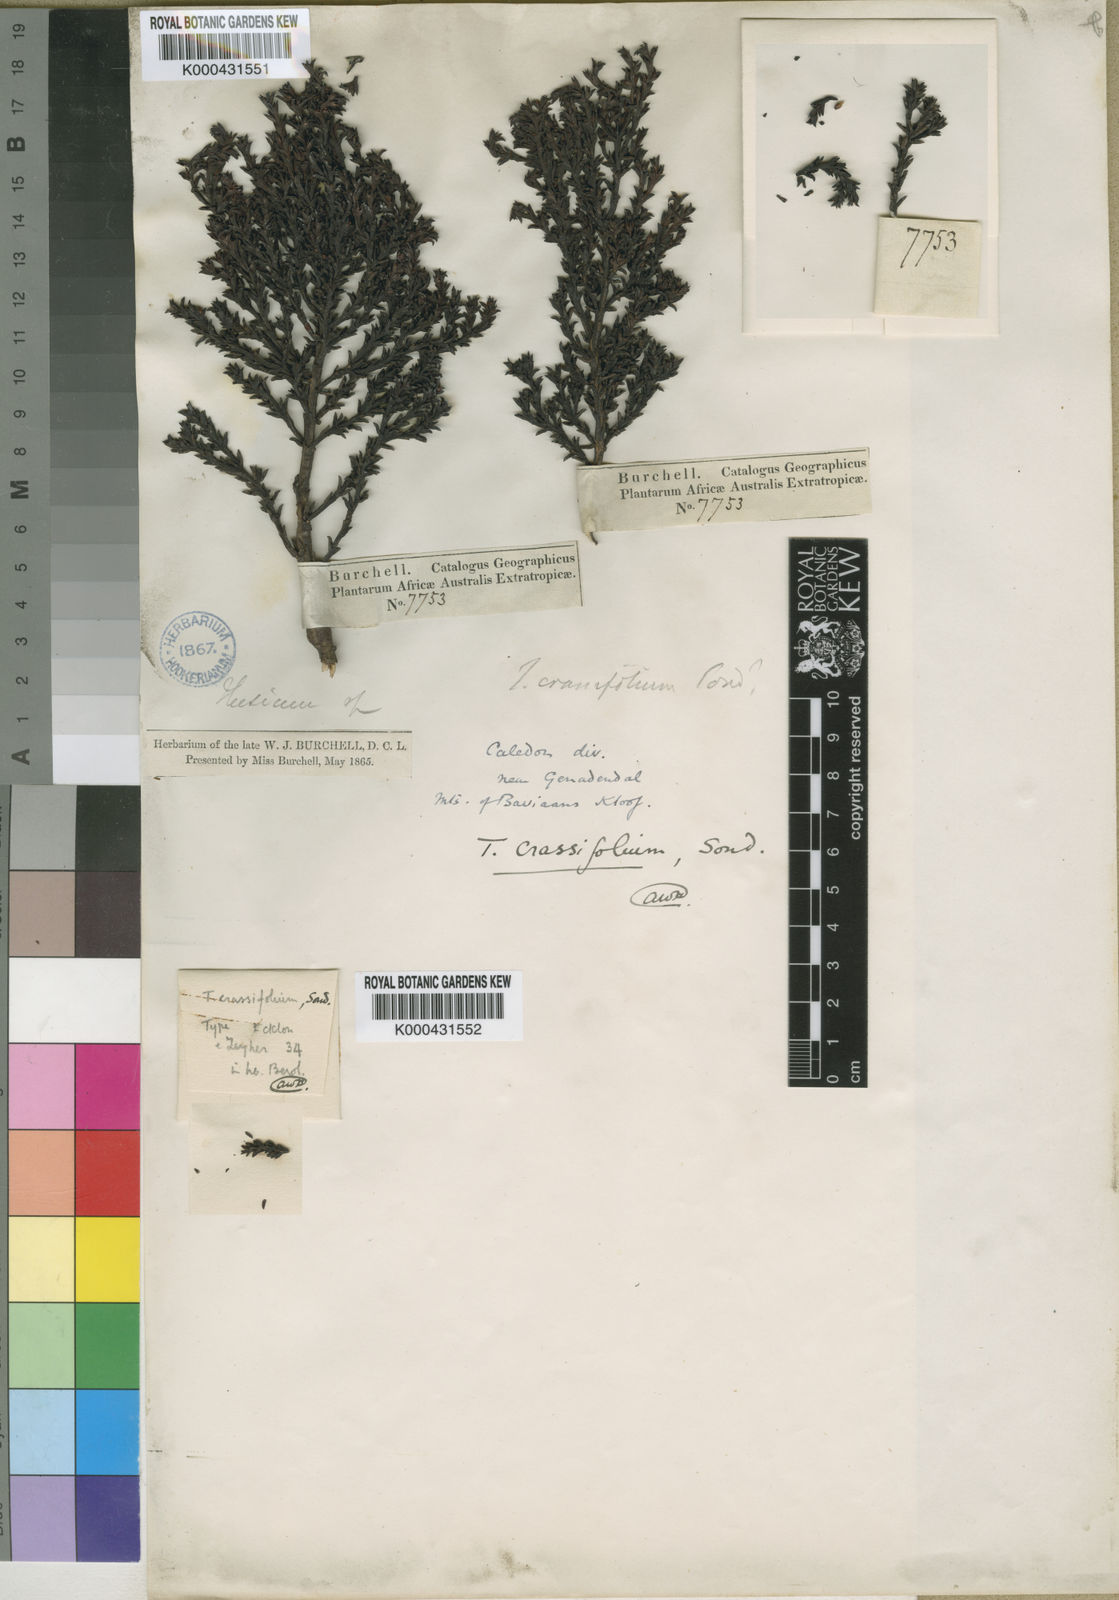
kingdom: Plantae
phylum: Tracheophyta
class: Magnoliopsida
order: Santalales
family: Thesiaceae
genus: Thesium
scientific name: Thesium sedifolium
